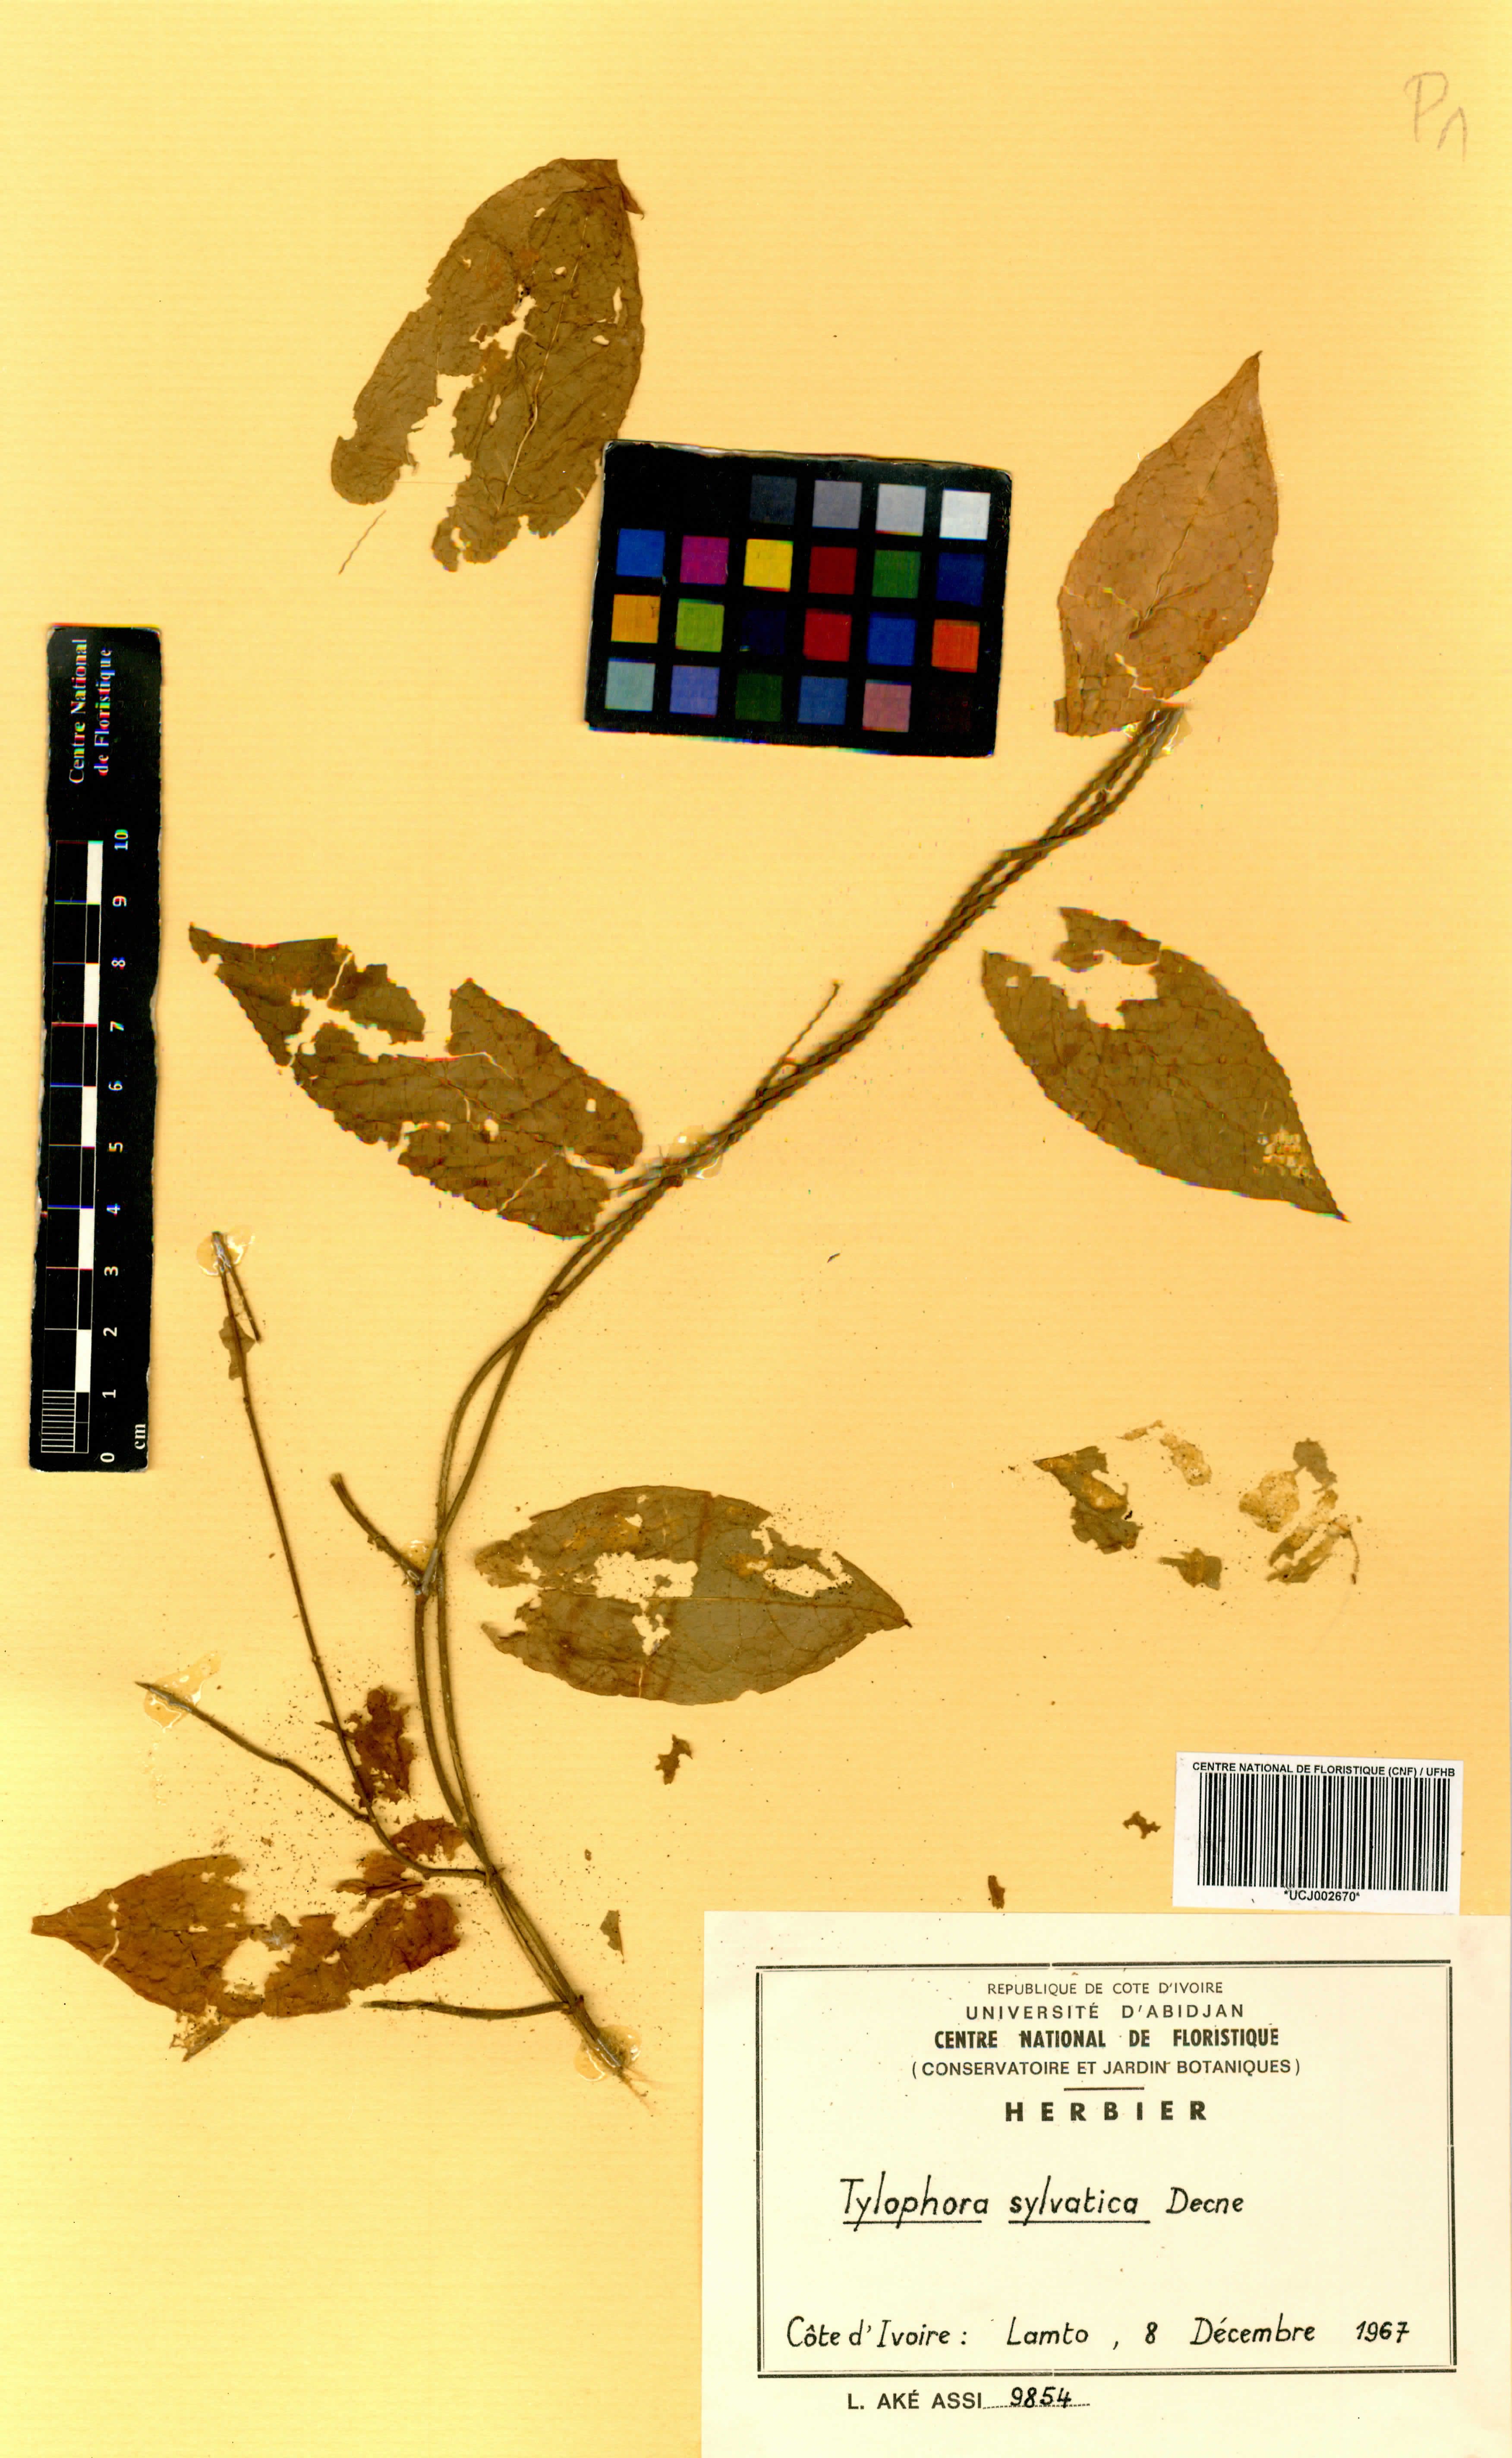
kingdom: Plantae
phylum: Tracheophyta
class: Magnoliopsida
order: Gentianales
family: Apocynaceae
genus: Vincetoxicum
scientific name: Vincetoxicum sylvaticum
